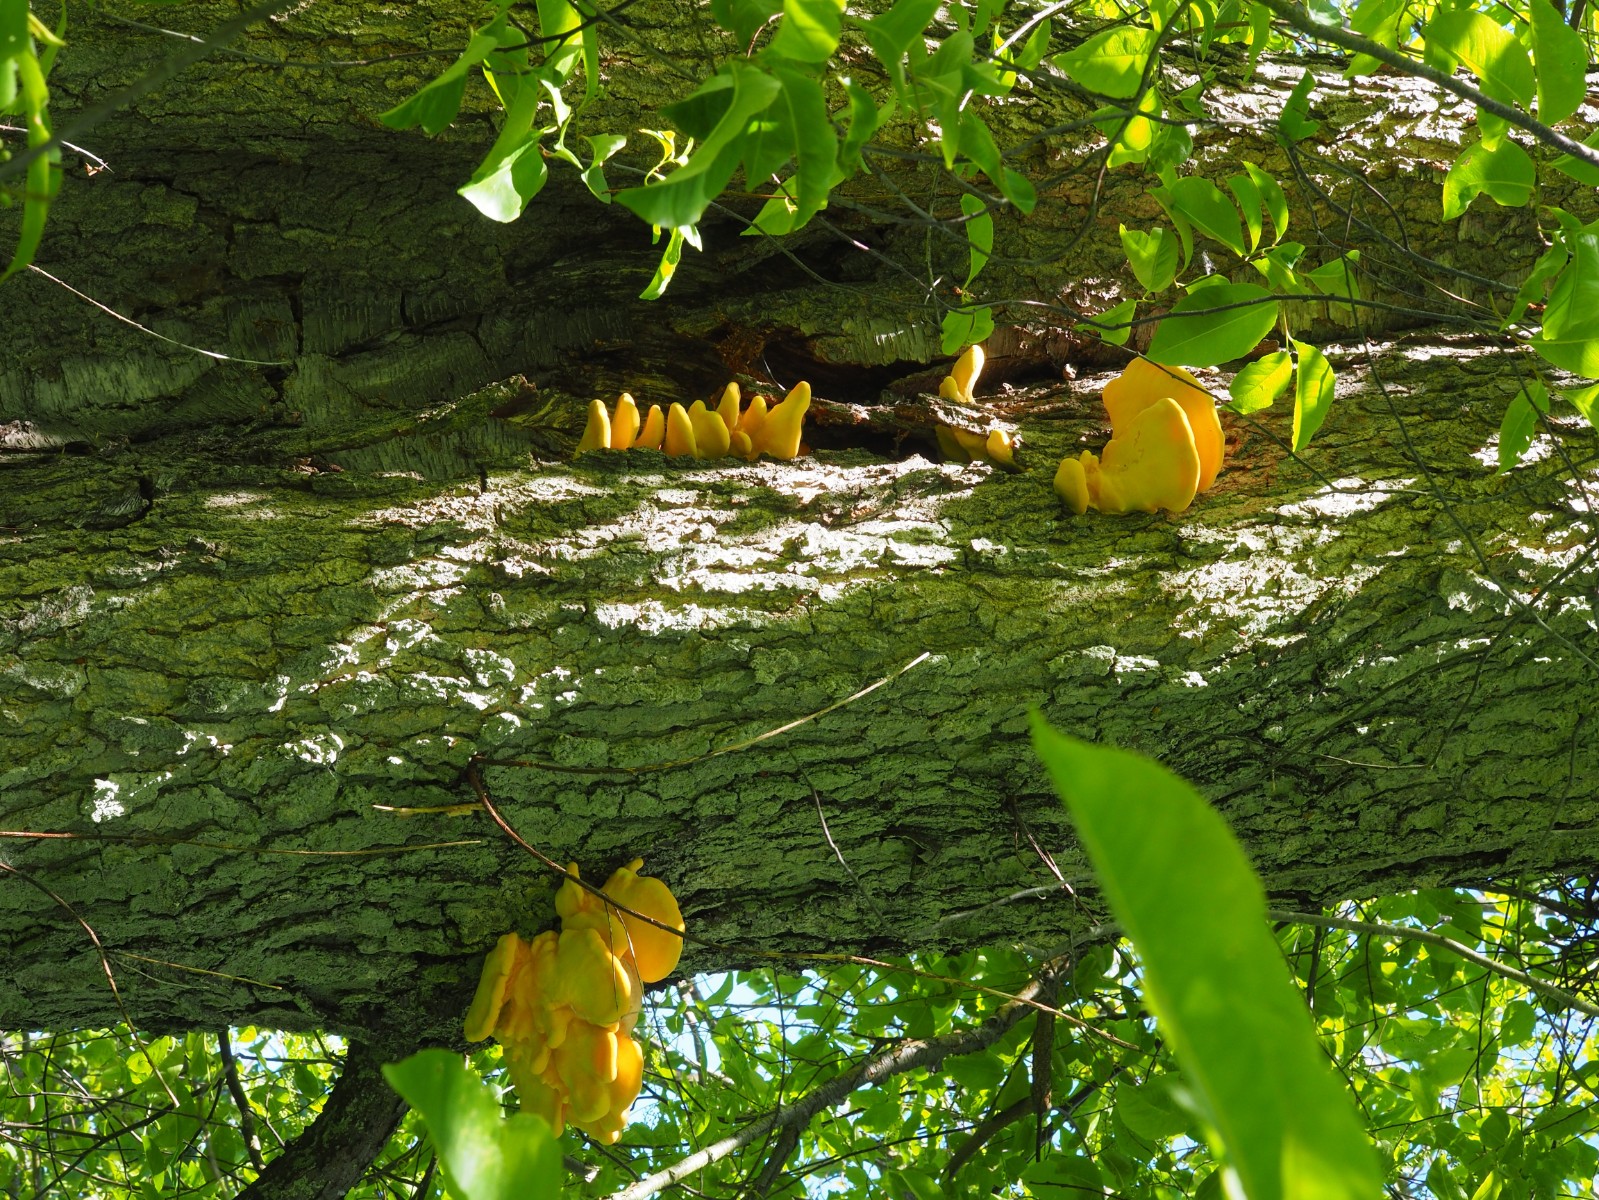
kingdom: Fungi
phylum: Basidiomycota
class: Agaricomycetes
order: Polyporales
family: Laetiporaceae
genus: Laetiporus
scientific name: Laetiporus sulphureus
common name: svovlporesvamp
